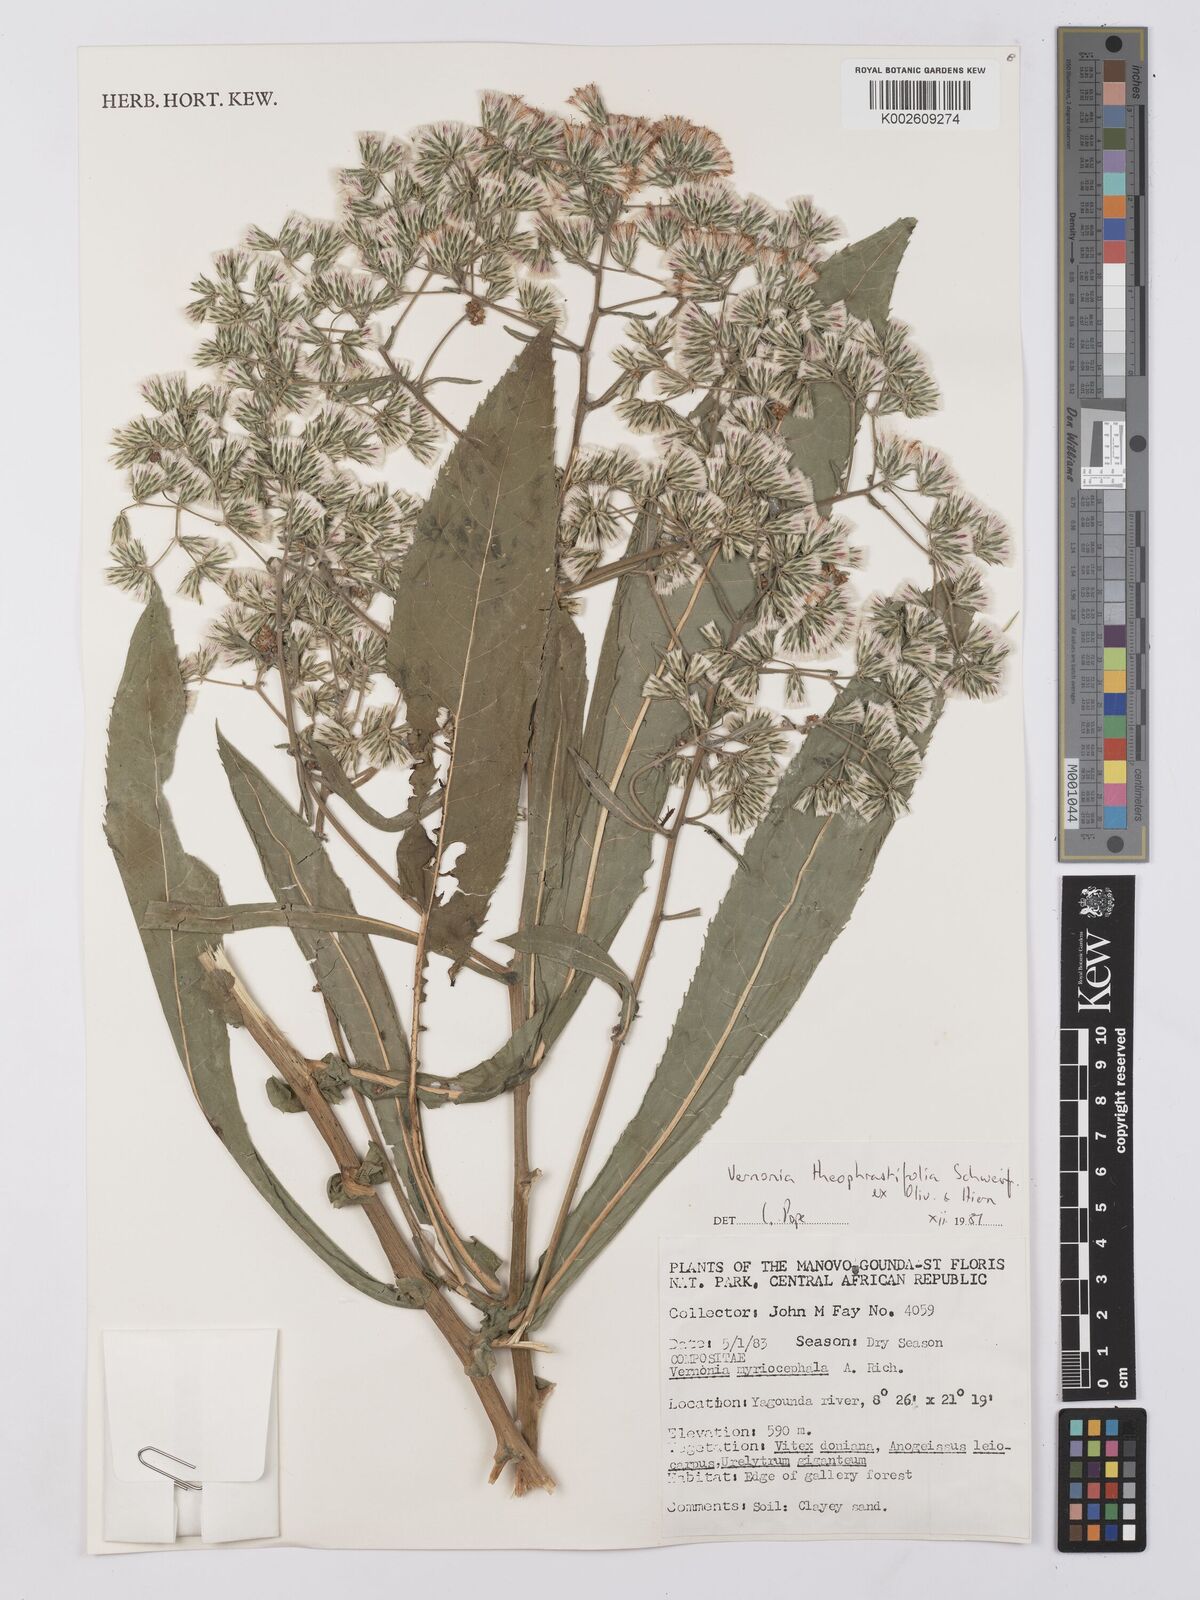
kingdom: Plantae
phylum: Tracheophyta
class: Magnoliopsida
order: Asterales
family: Asteraceae
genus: Gymnanthemum
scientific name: Gymnanthemum theophrastifolium
